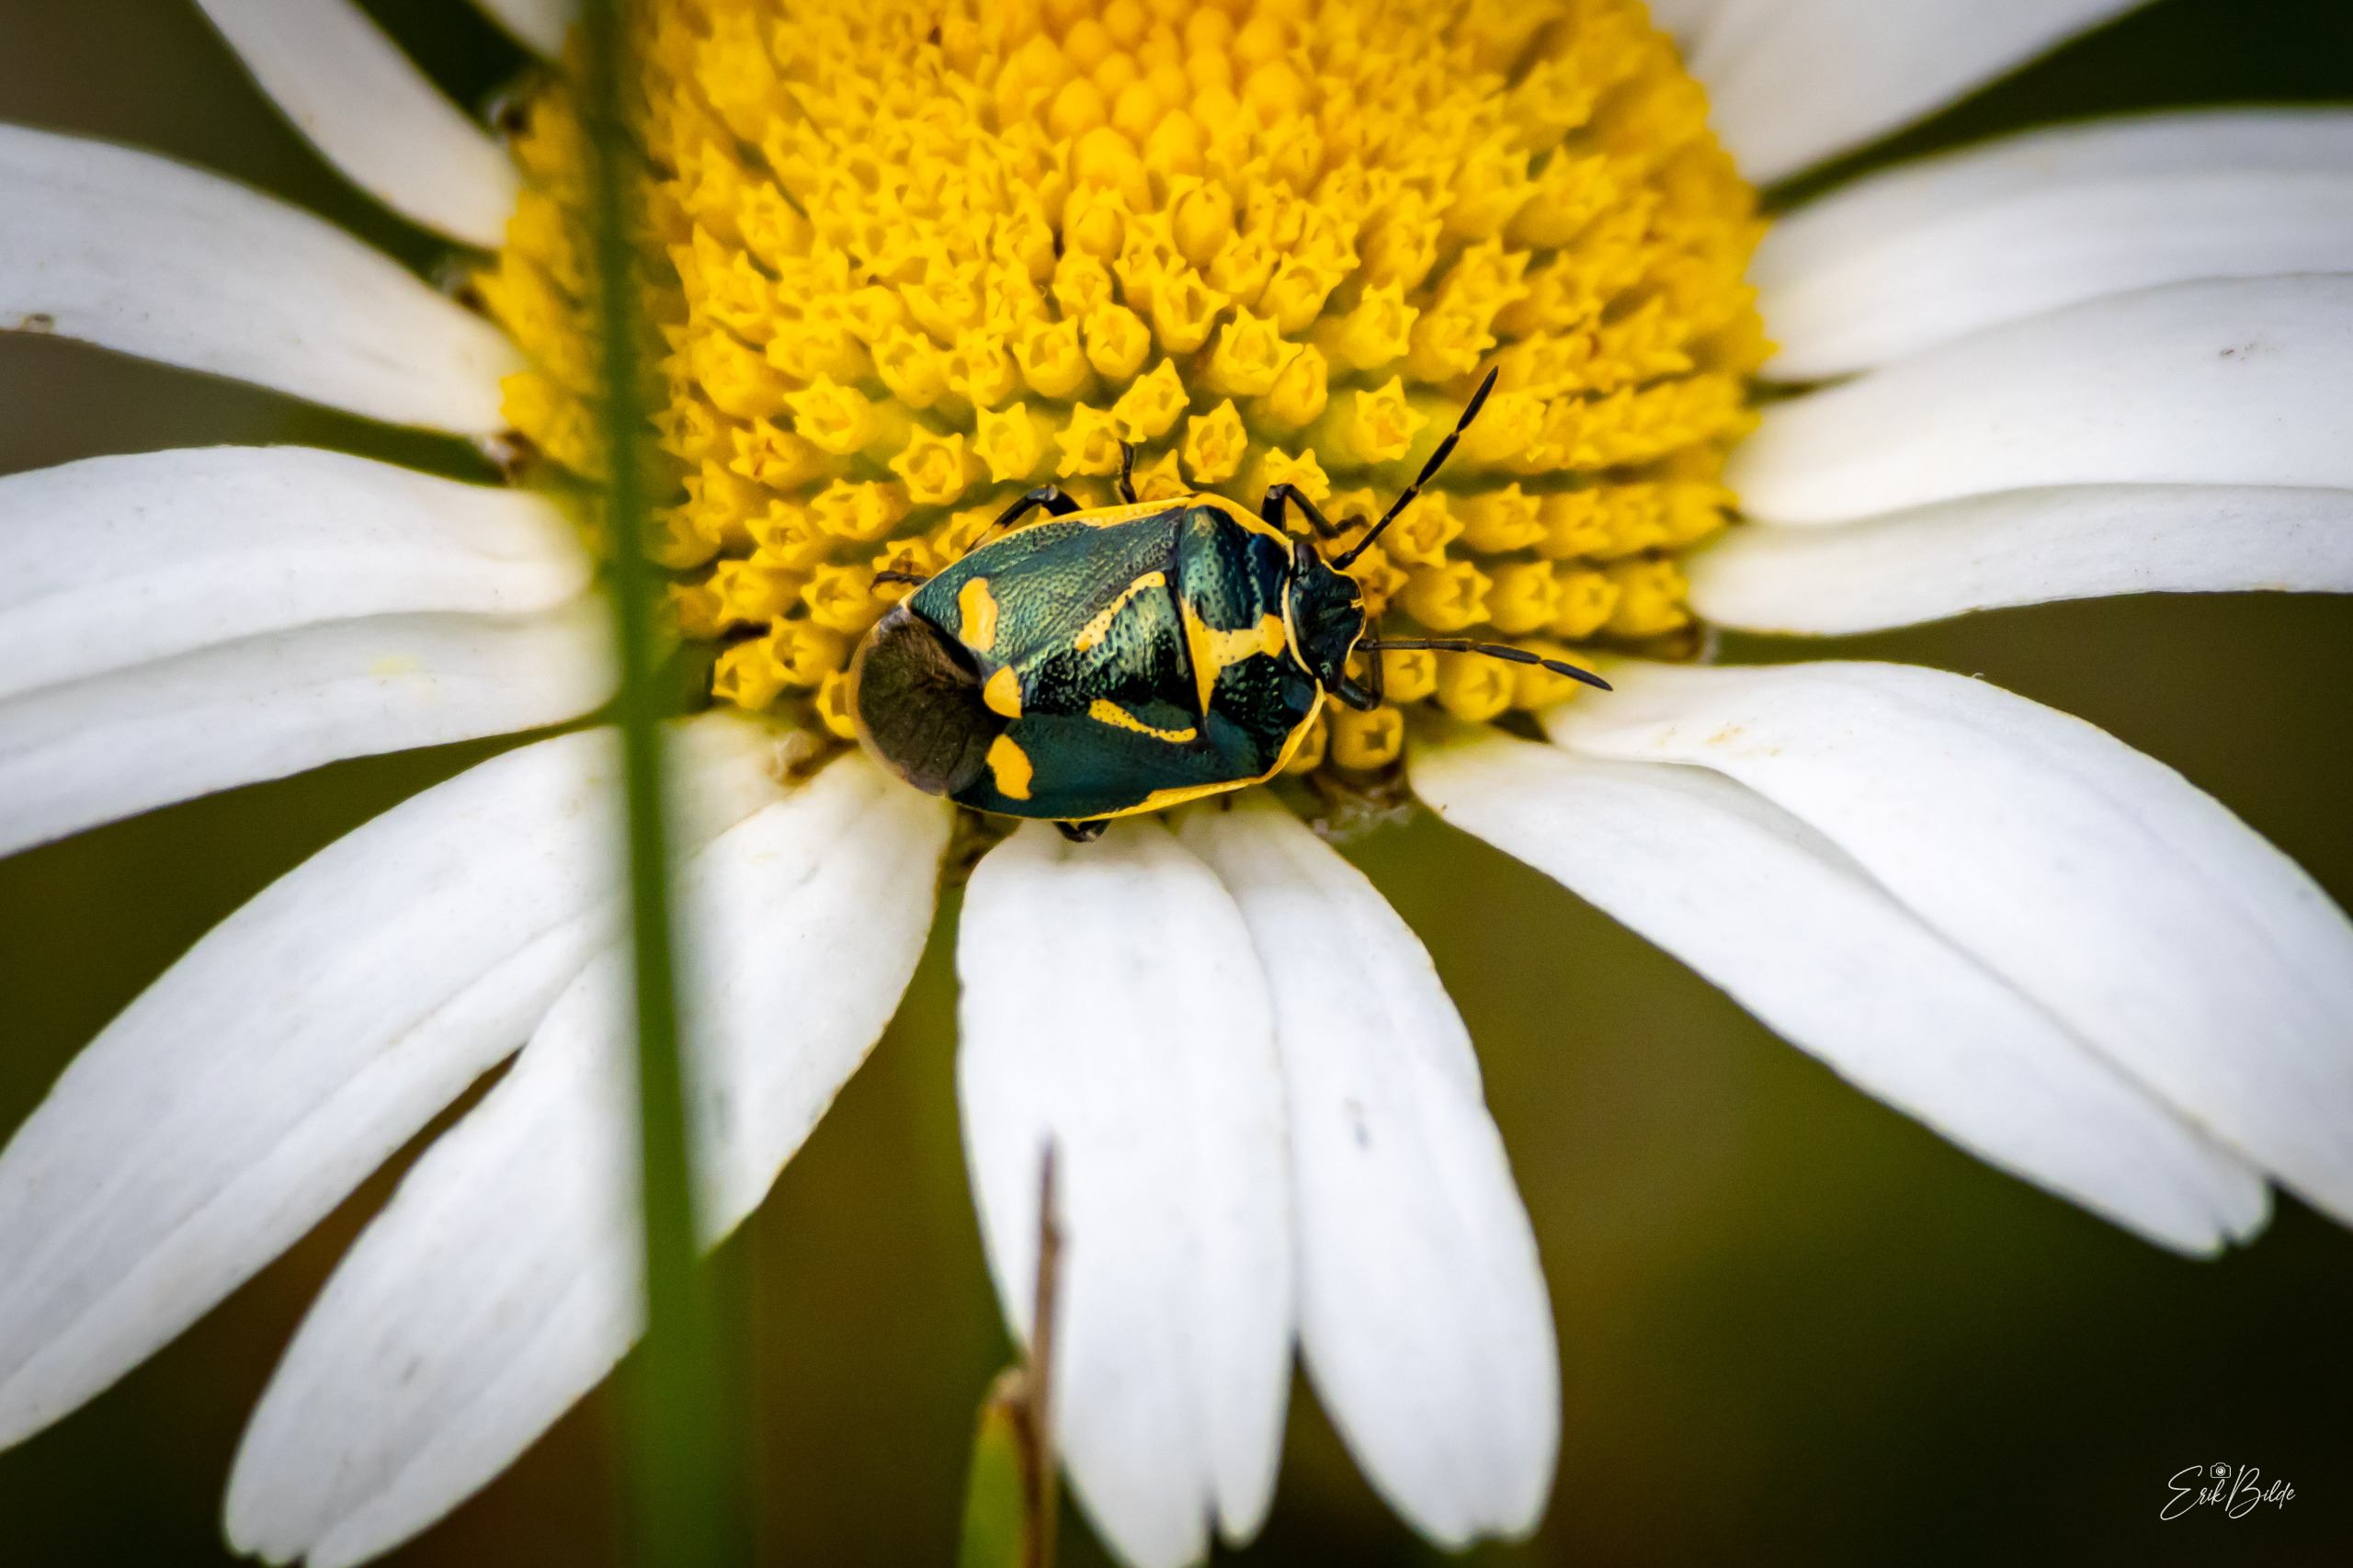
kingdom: Animalia
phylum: Arthropoda
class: Insecta
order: Hemiptera
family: Pentatomidae
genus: Eurydema
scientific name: Eurydema oleracea
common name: Almindelig kåltæge
